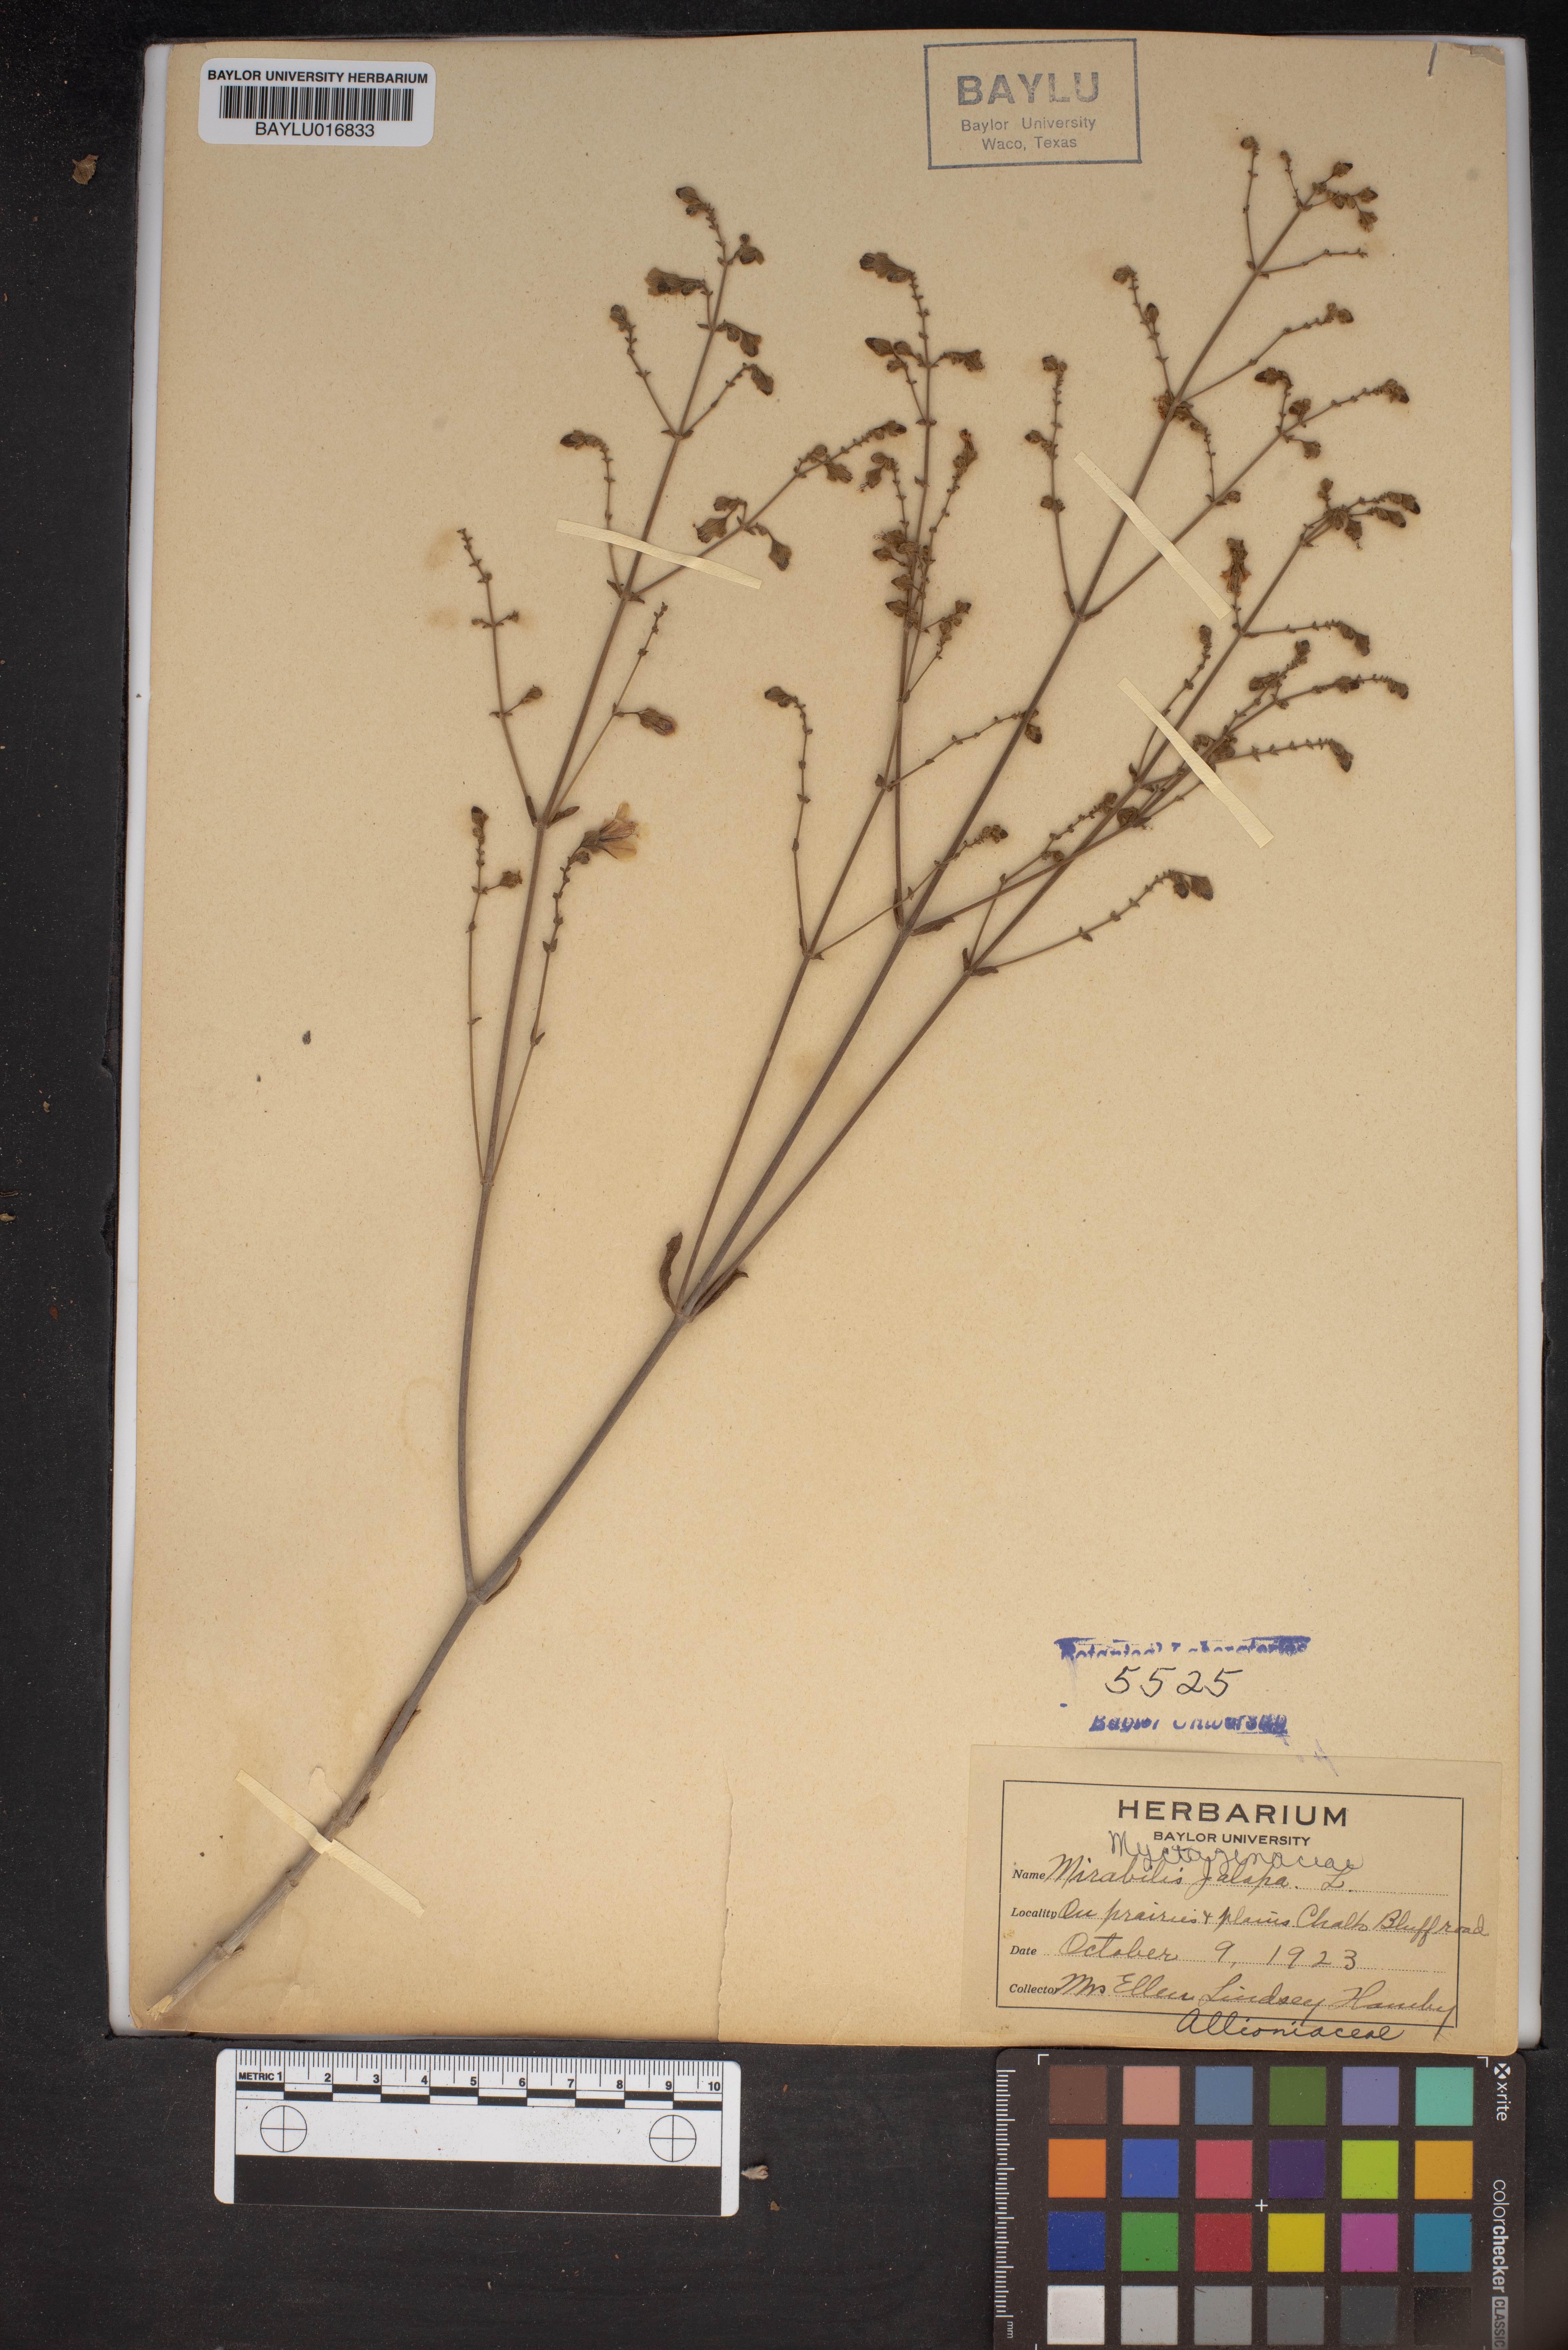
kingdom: Plantae
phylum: Tracheophyta
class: Magnoliopsida
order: Caryophyllales
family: Nyctaginaceae
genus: Mirabilis
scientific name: Mirabilis jalapa
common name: Marvel-of-peru
